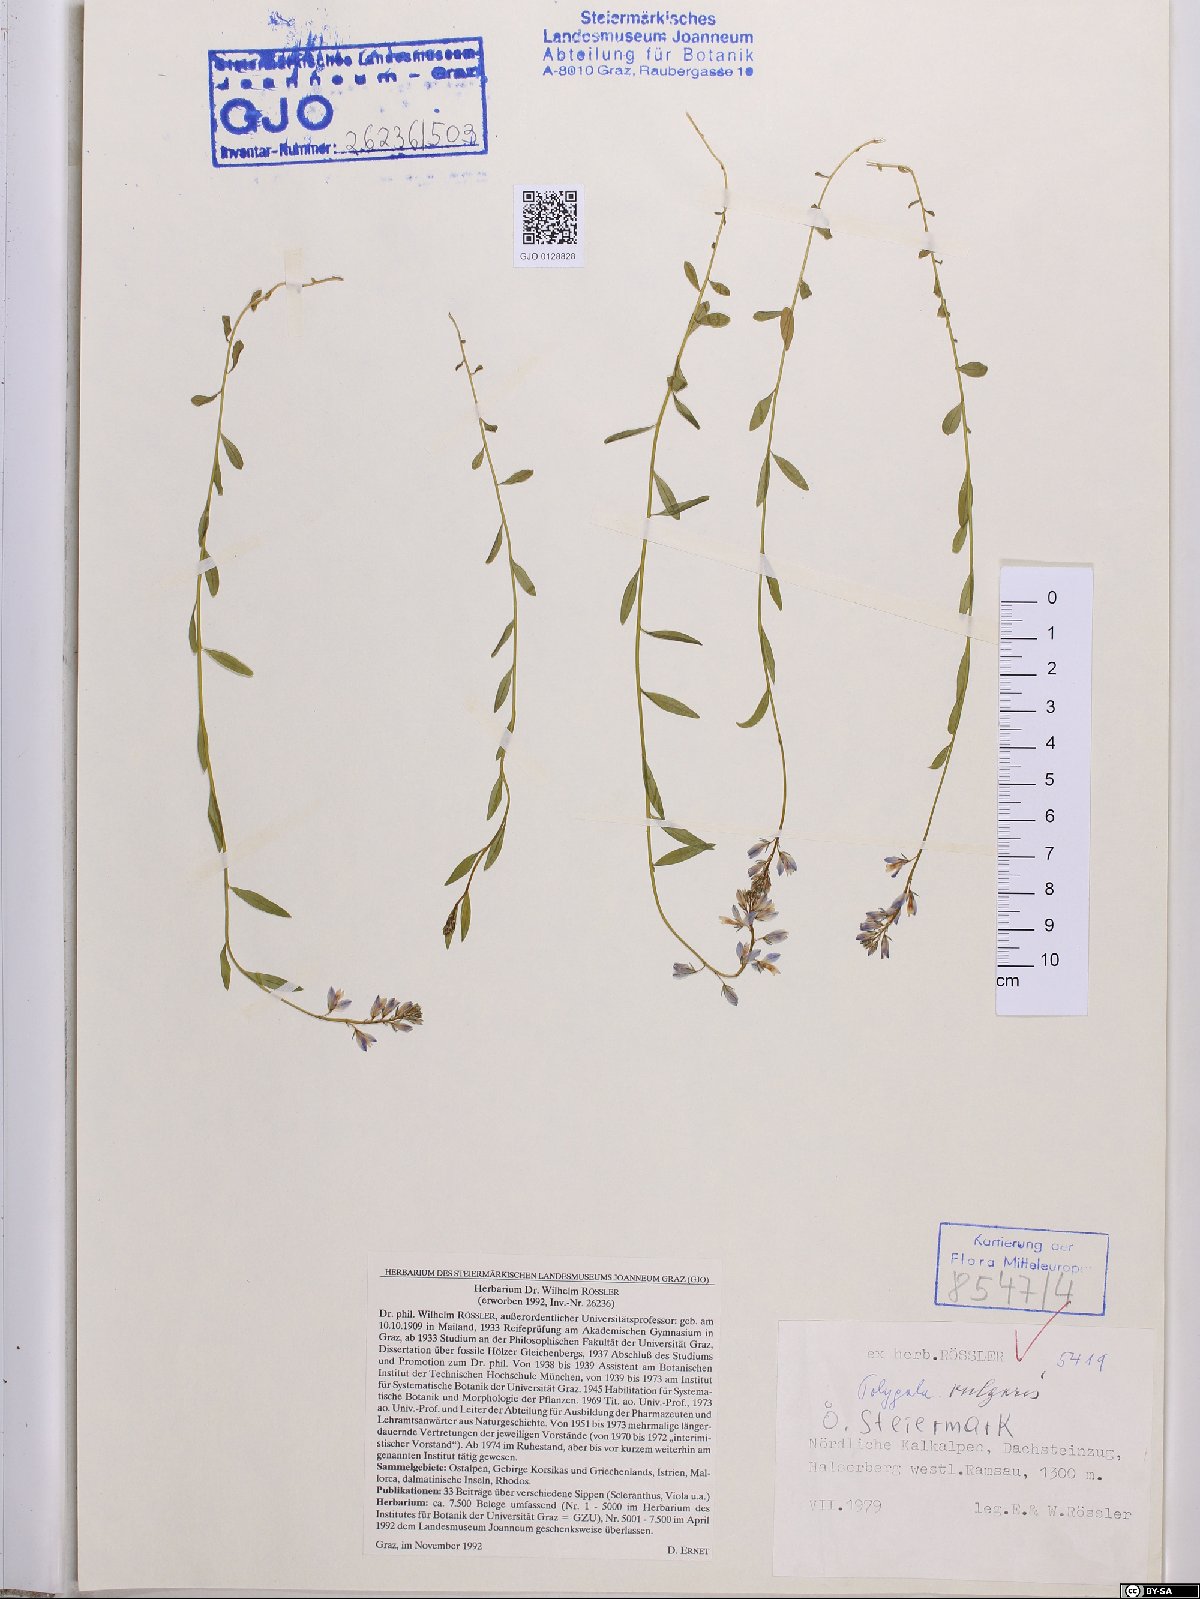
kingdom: Plantae
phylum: Tracheophyta
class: Magnoliopsida
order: Fabales
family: Polygalaceae
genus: Polygala
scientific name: Polygala vulgaris
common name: Common milkwort
